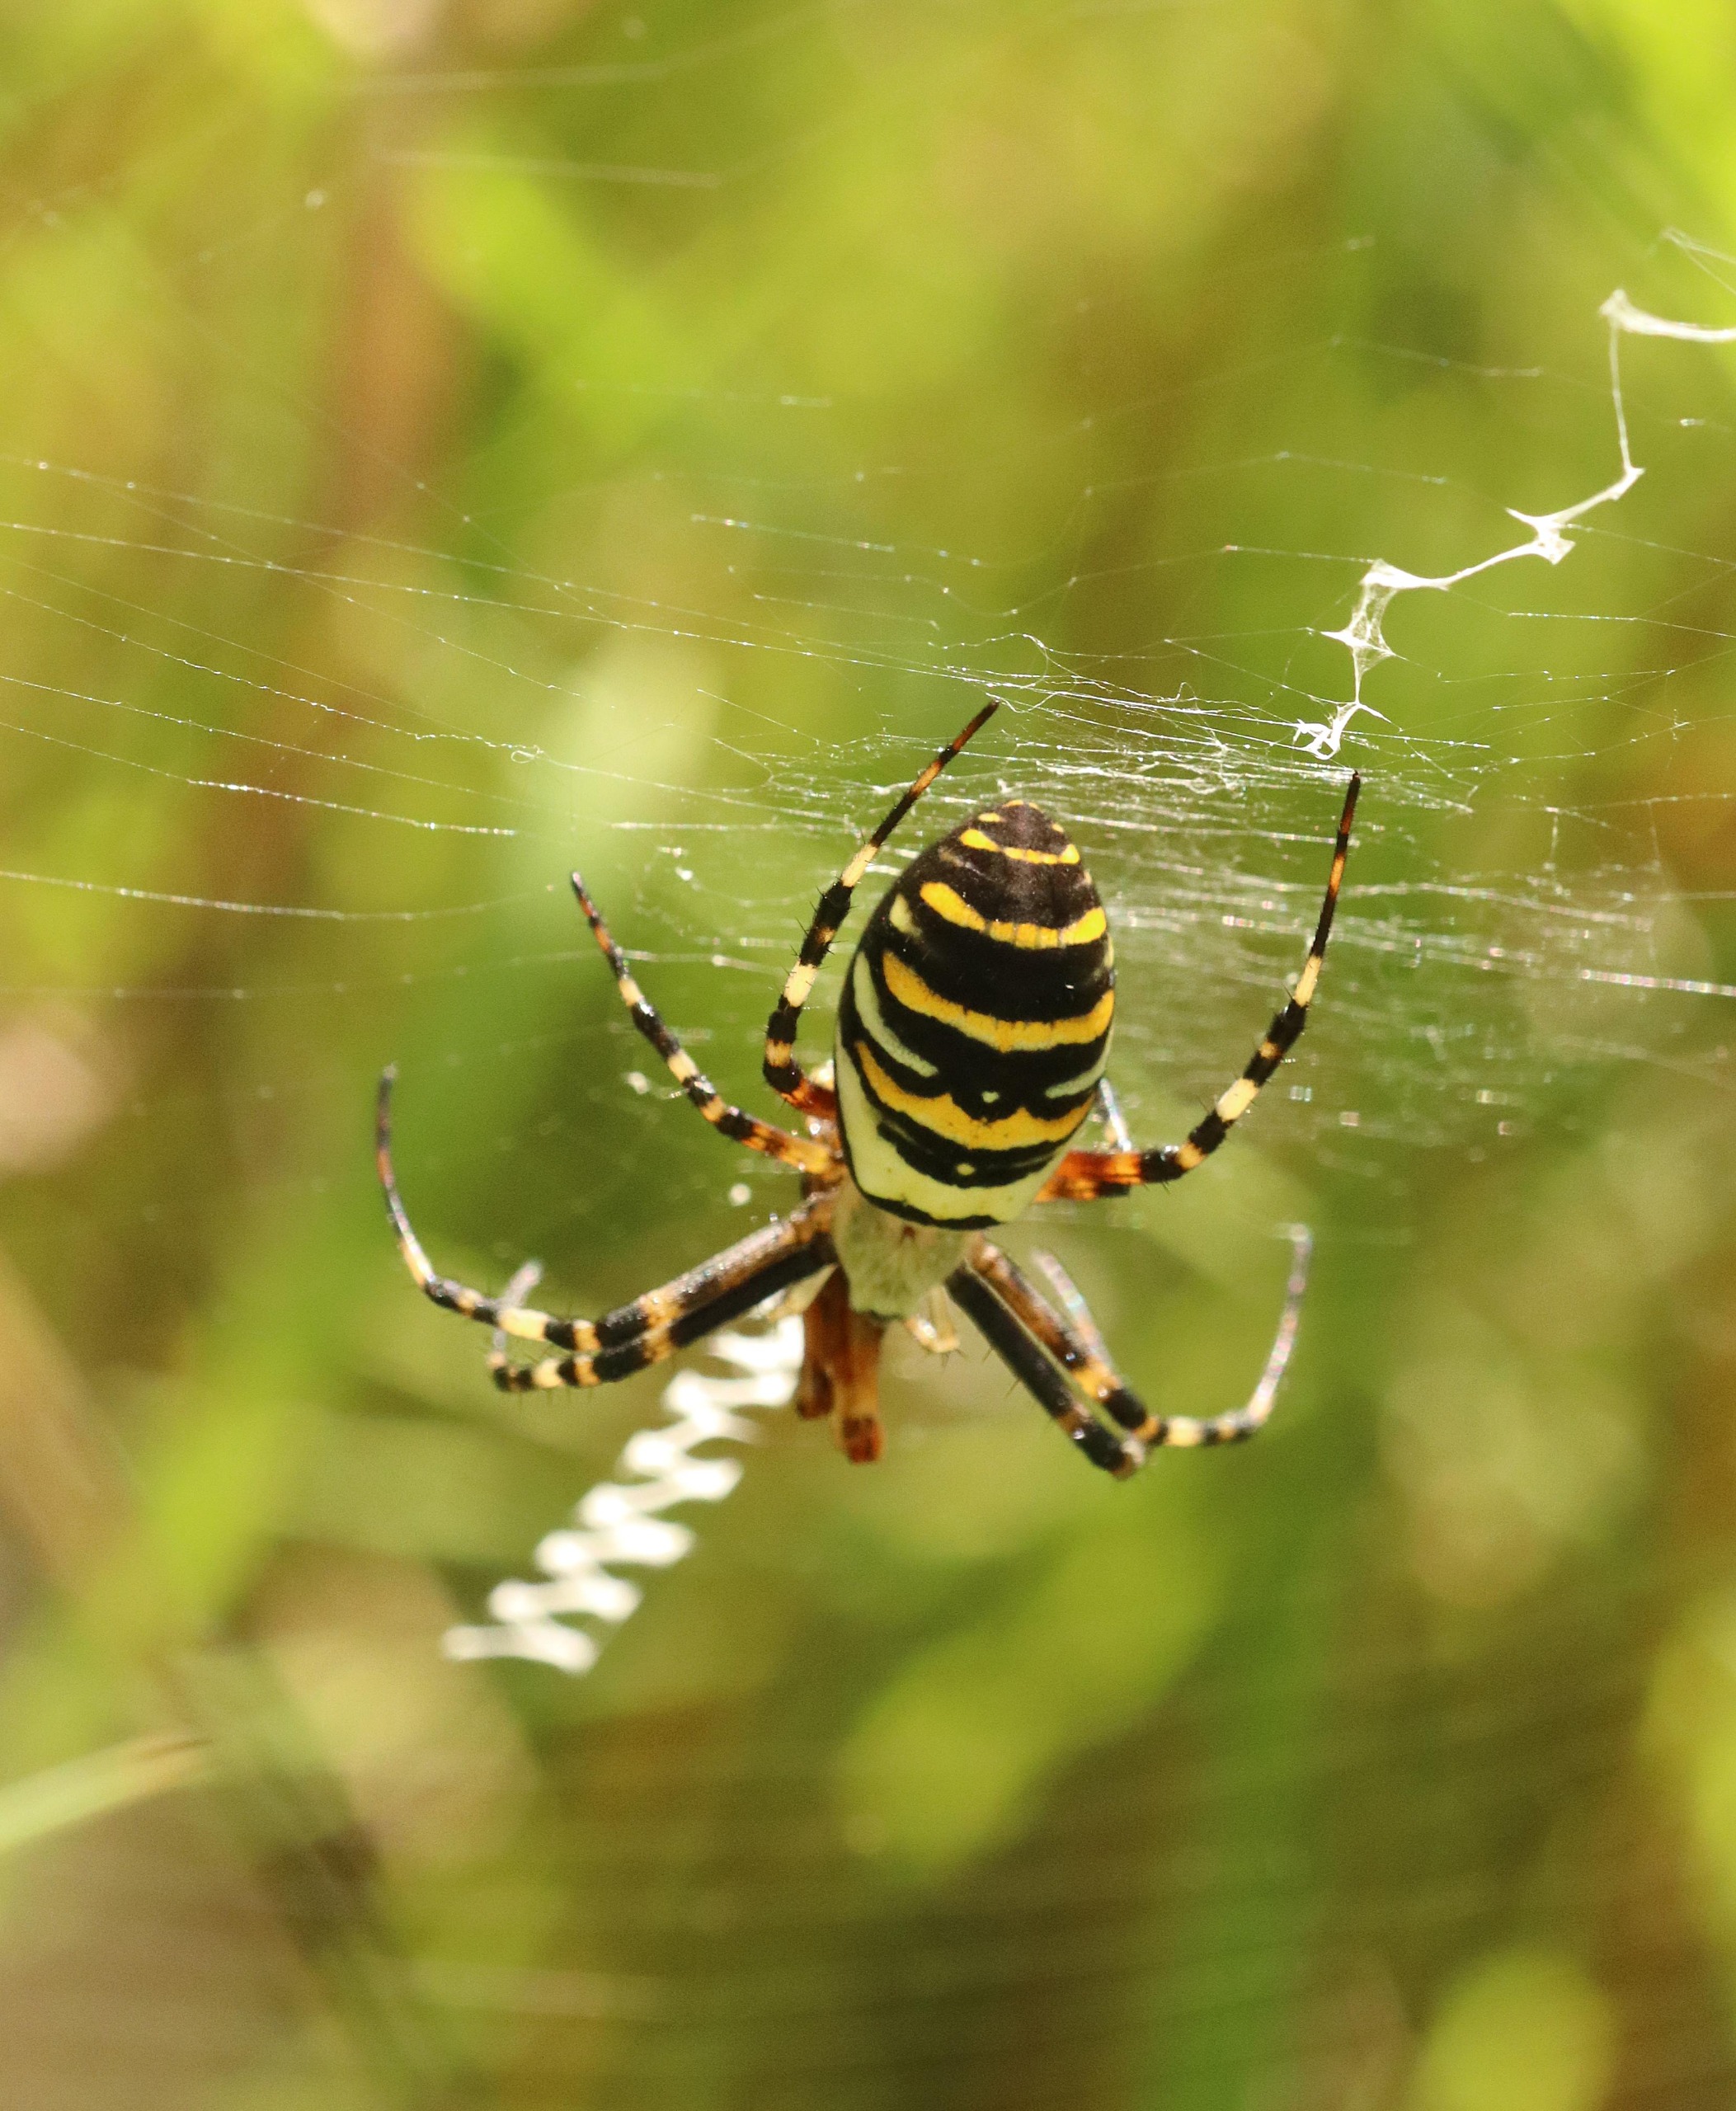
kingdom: Animalia
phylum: Arthropoda
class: Arachnida
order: Araneae
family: Araneidae
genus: Argiope
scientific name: Argiope bruennichi
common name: Hvepseedderkop
